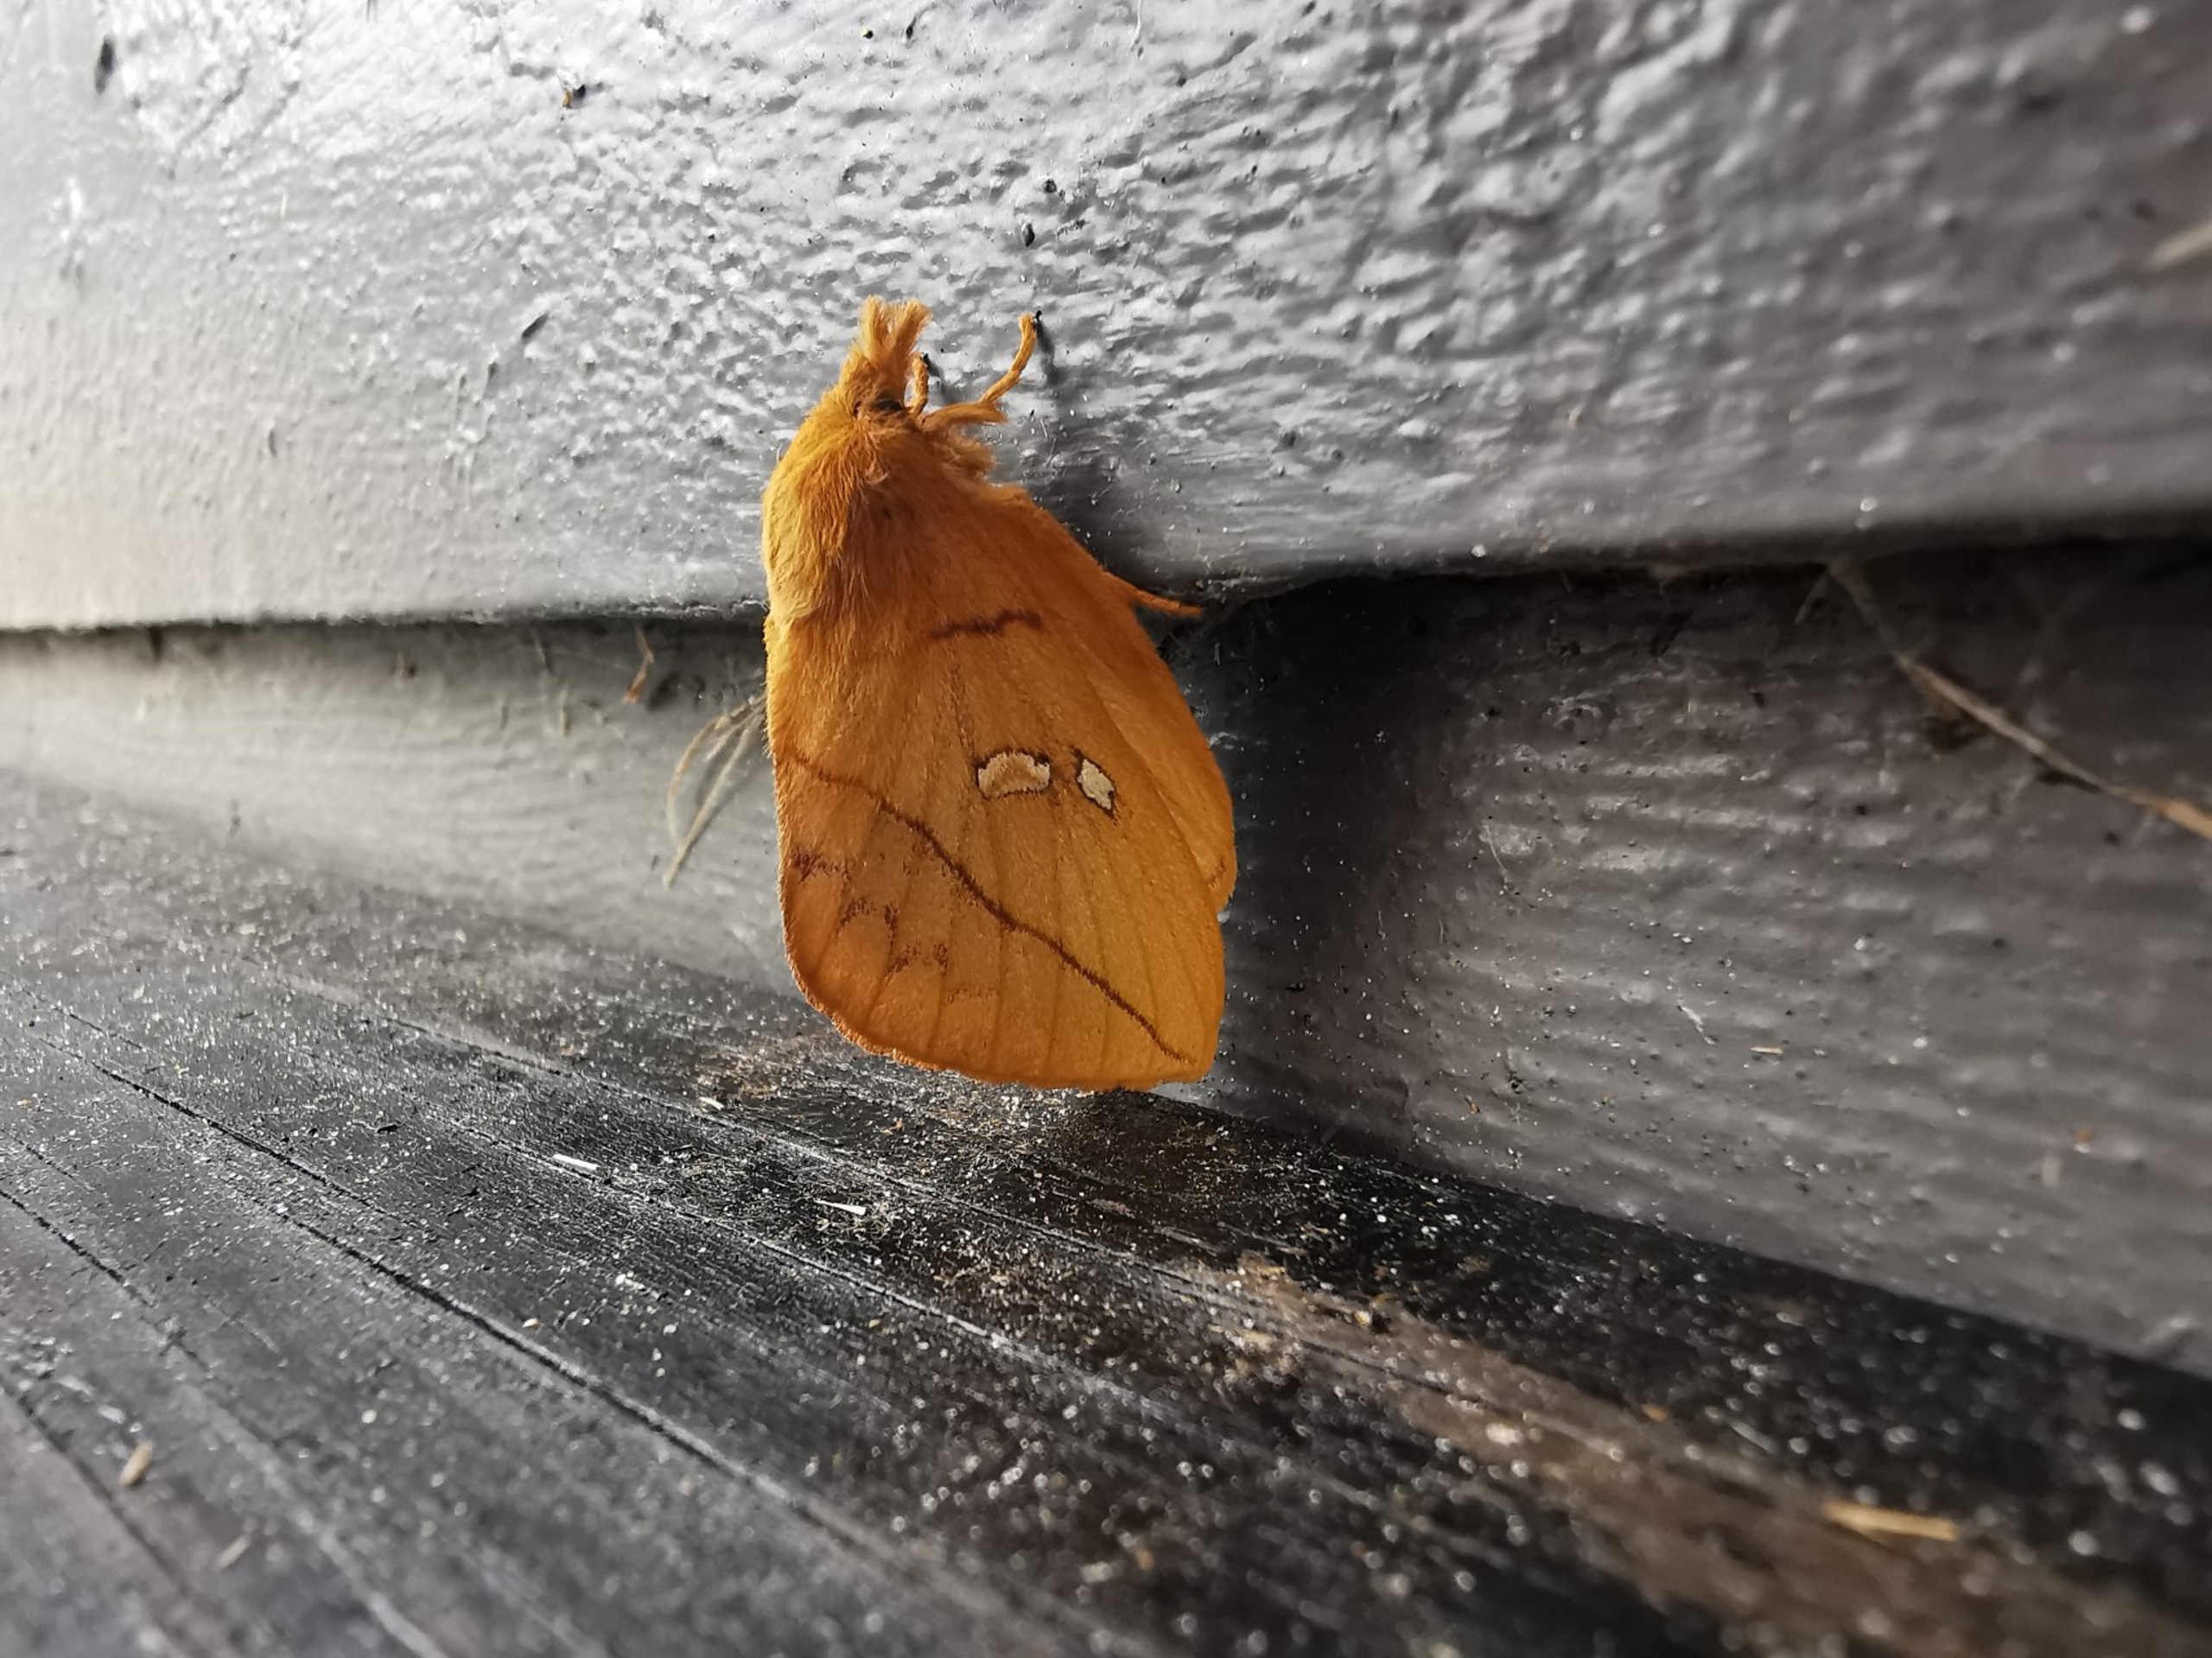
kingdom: Animalia
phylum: Arthropoda
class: Insecta
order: Lepidoptera
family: Lasiocampidae
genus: Euthrix
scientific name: Euthrix potatoria
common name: Græsspinder
